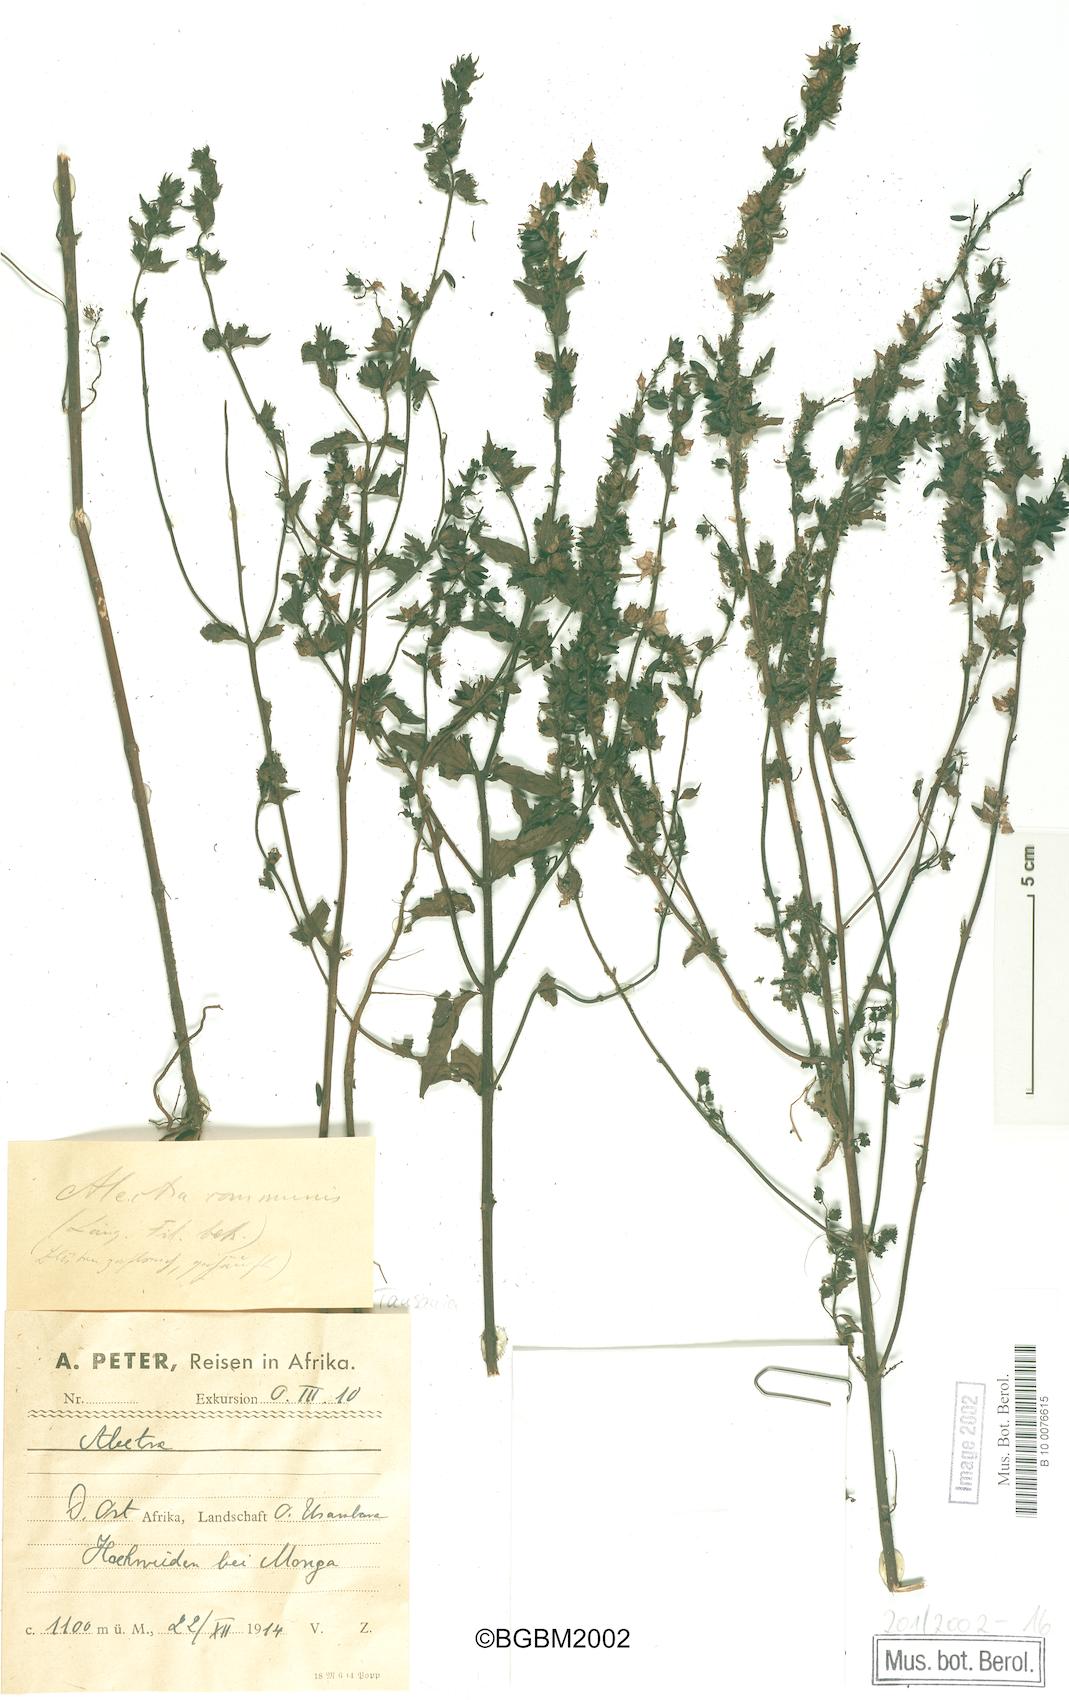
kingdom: Plantae
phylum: Tracheophyta
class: Magnoliopsida
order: Lamiales
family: Orobanchaceae
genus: Alectra
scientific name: Alectra sessiliflora
